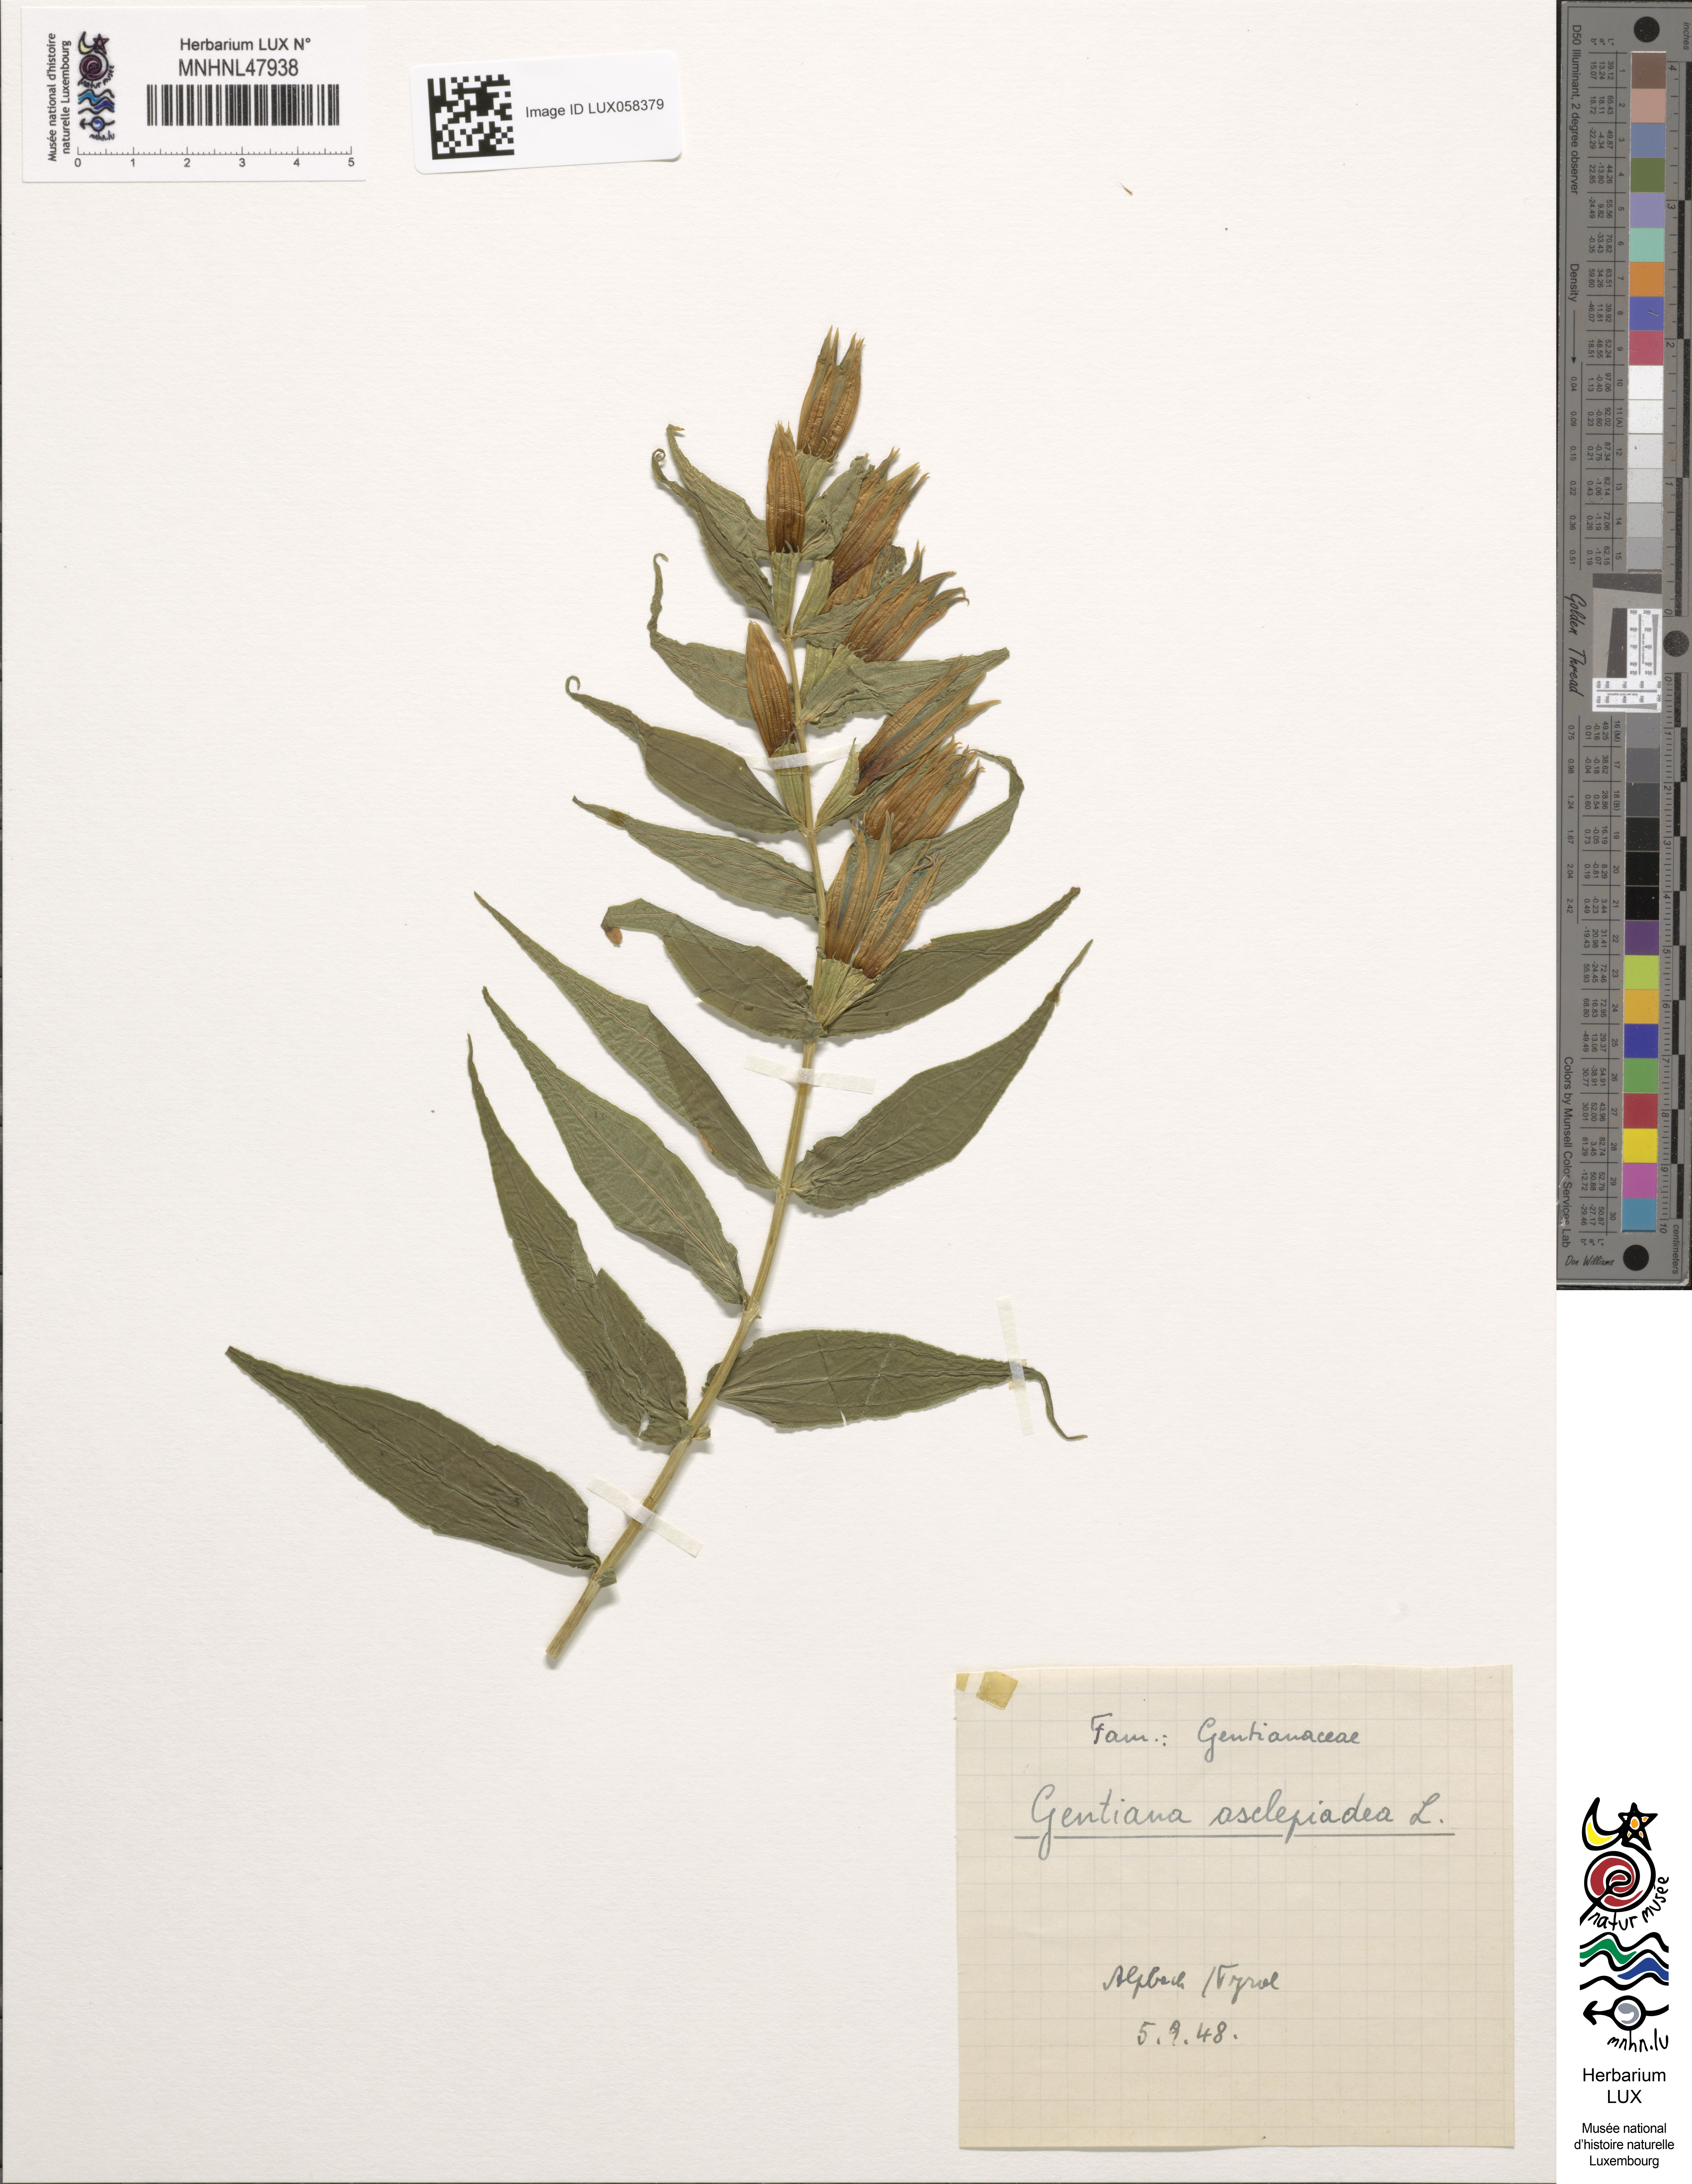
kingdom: Plantae
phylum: Tracheophyta
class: Magnoliopsida
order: Gentianales
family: Gentianaceae
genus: Gentiana
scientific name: Gentiana asclepiadea
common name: Willow gentian
